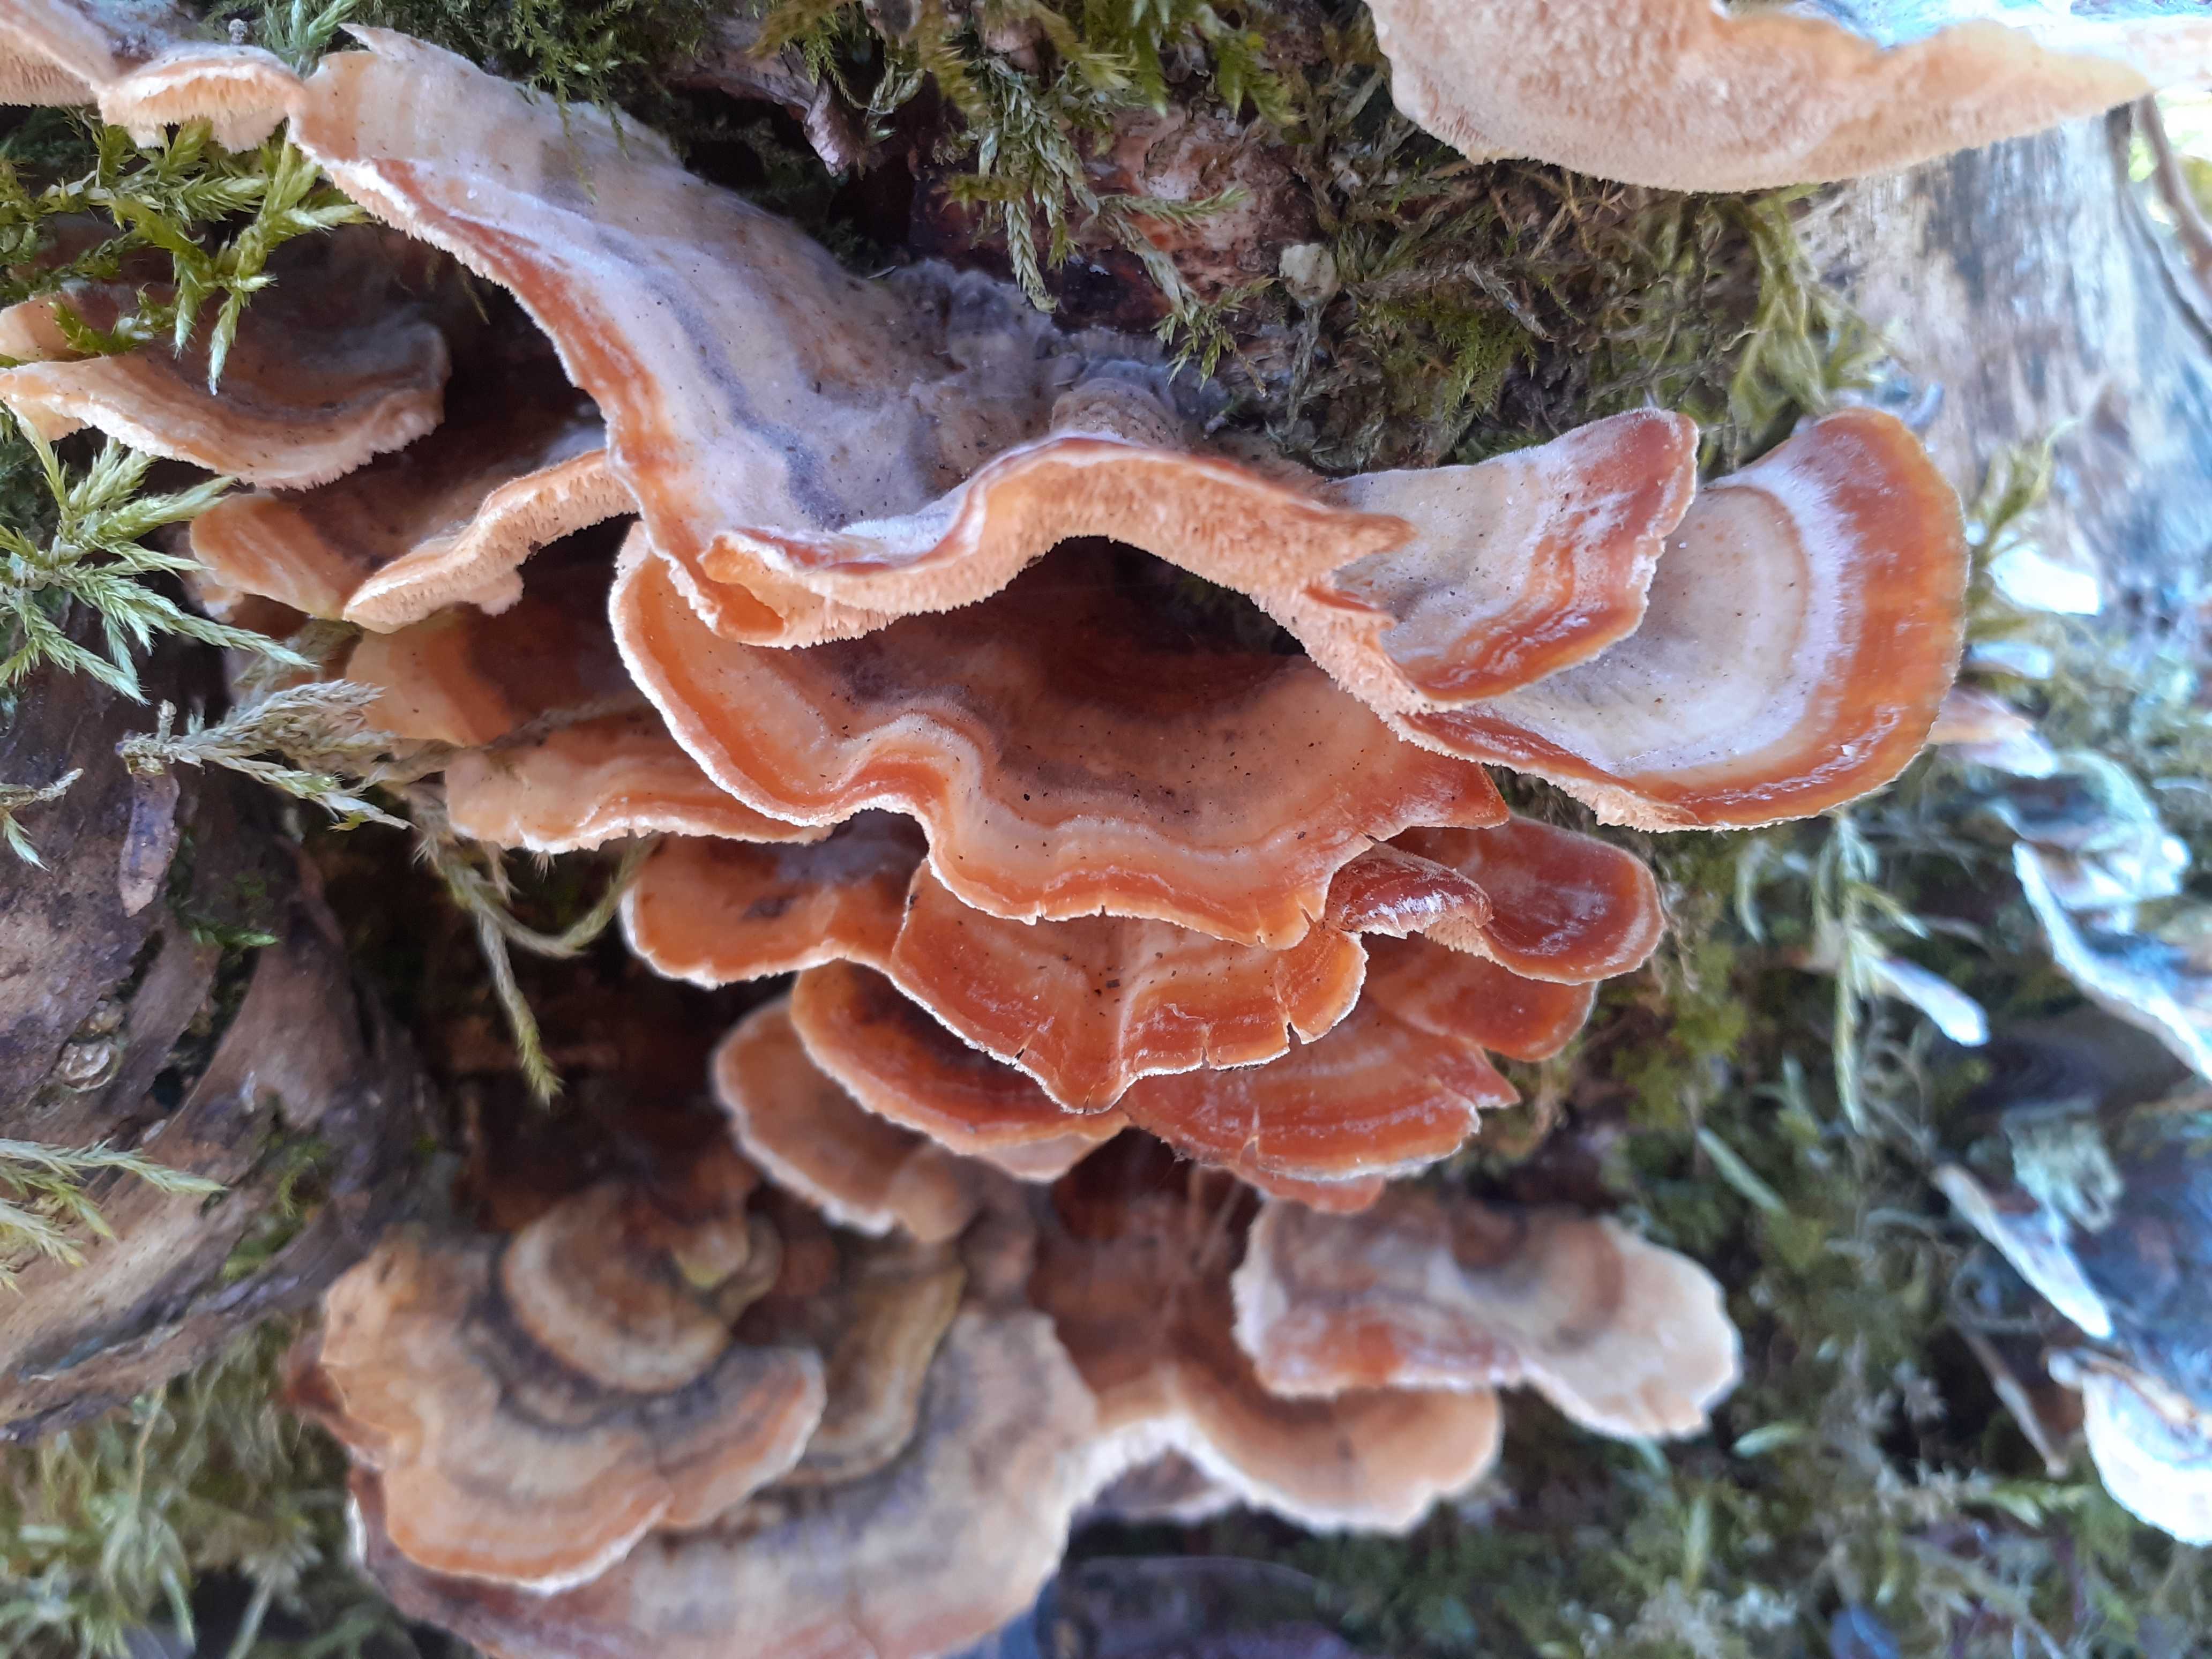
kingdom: Fungi
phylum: Basidiomycota
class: Agaricomycetes
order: Polyporales
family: Polyporaceae
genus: Trametes
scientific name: Trametes versicolor
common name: broget læderporesvamp
